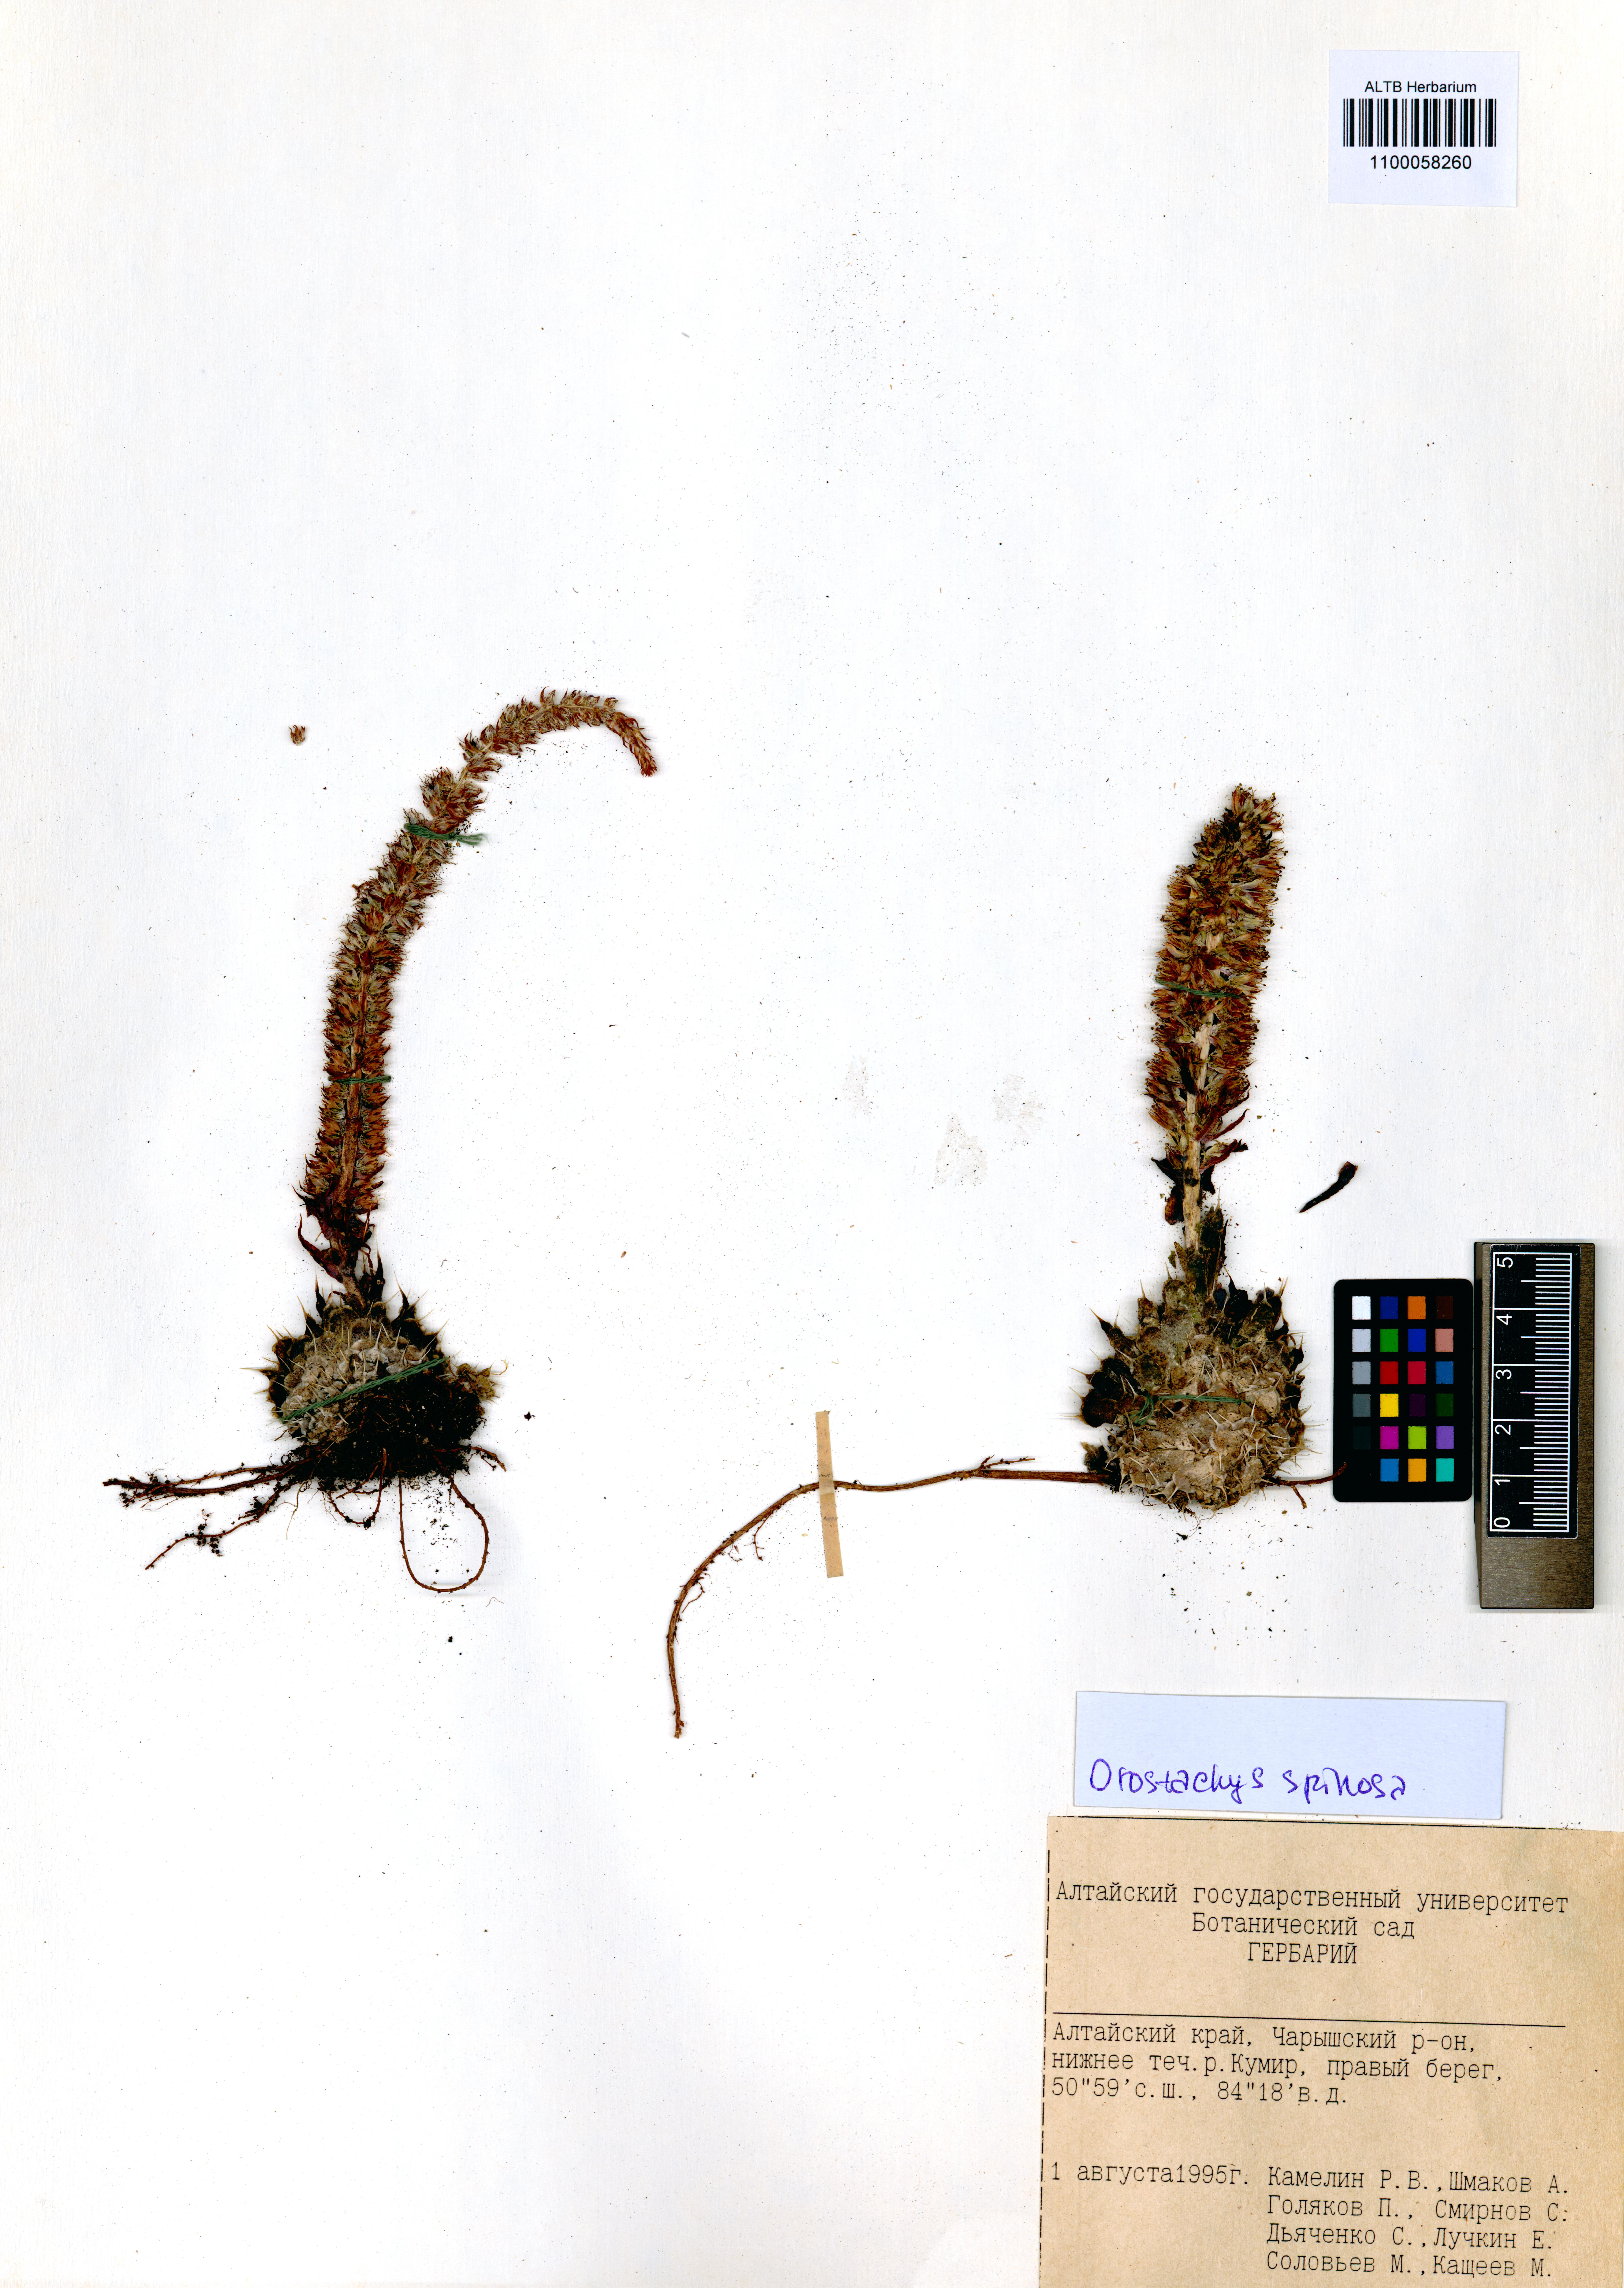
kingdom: Plantae
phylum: Tracheophyta
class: Magnoliopsida
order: Saxifragales
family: Crassulaceae
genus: Orostachys
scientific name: Orostachys spinosa
